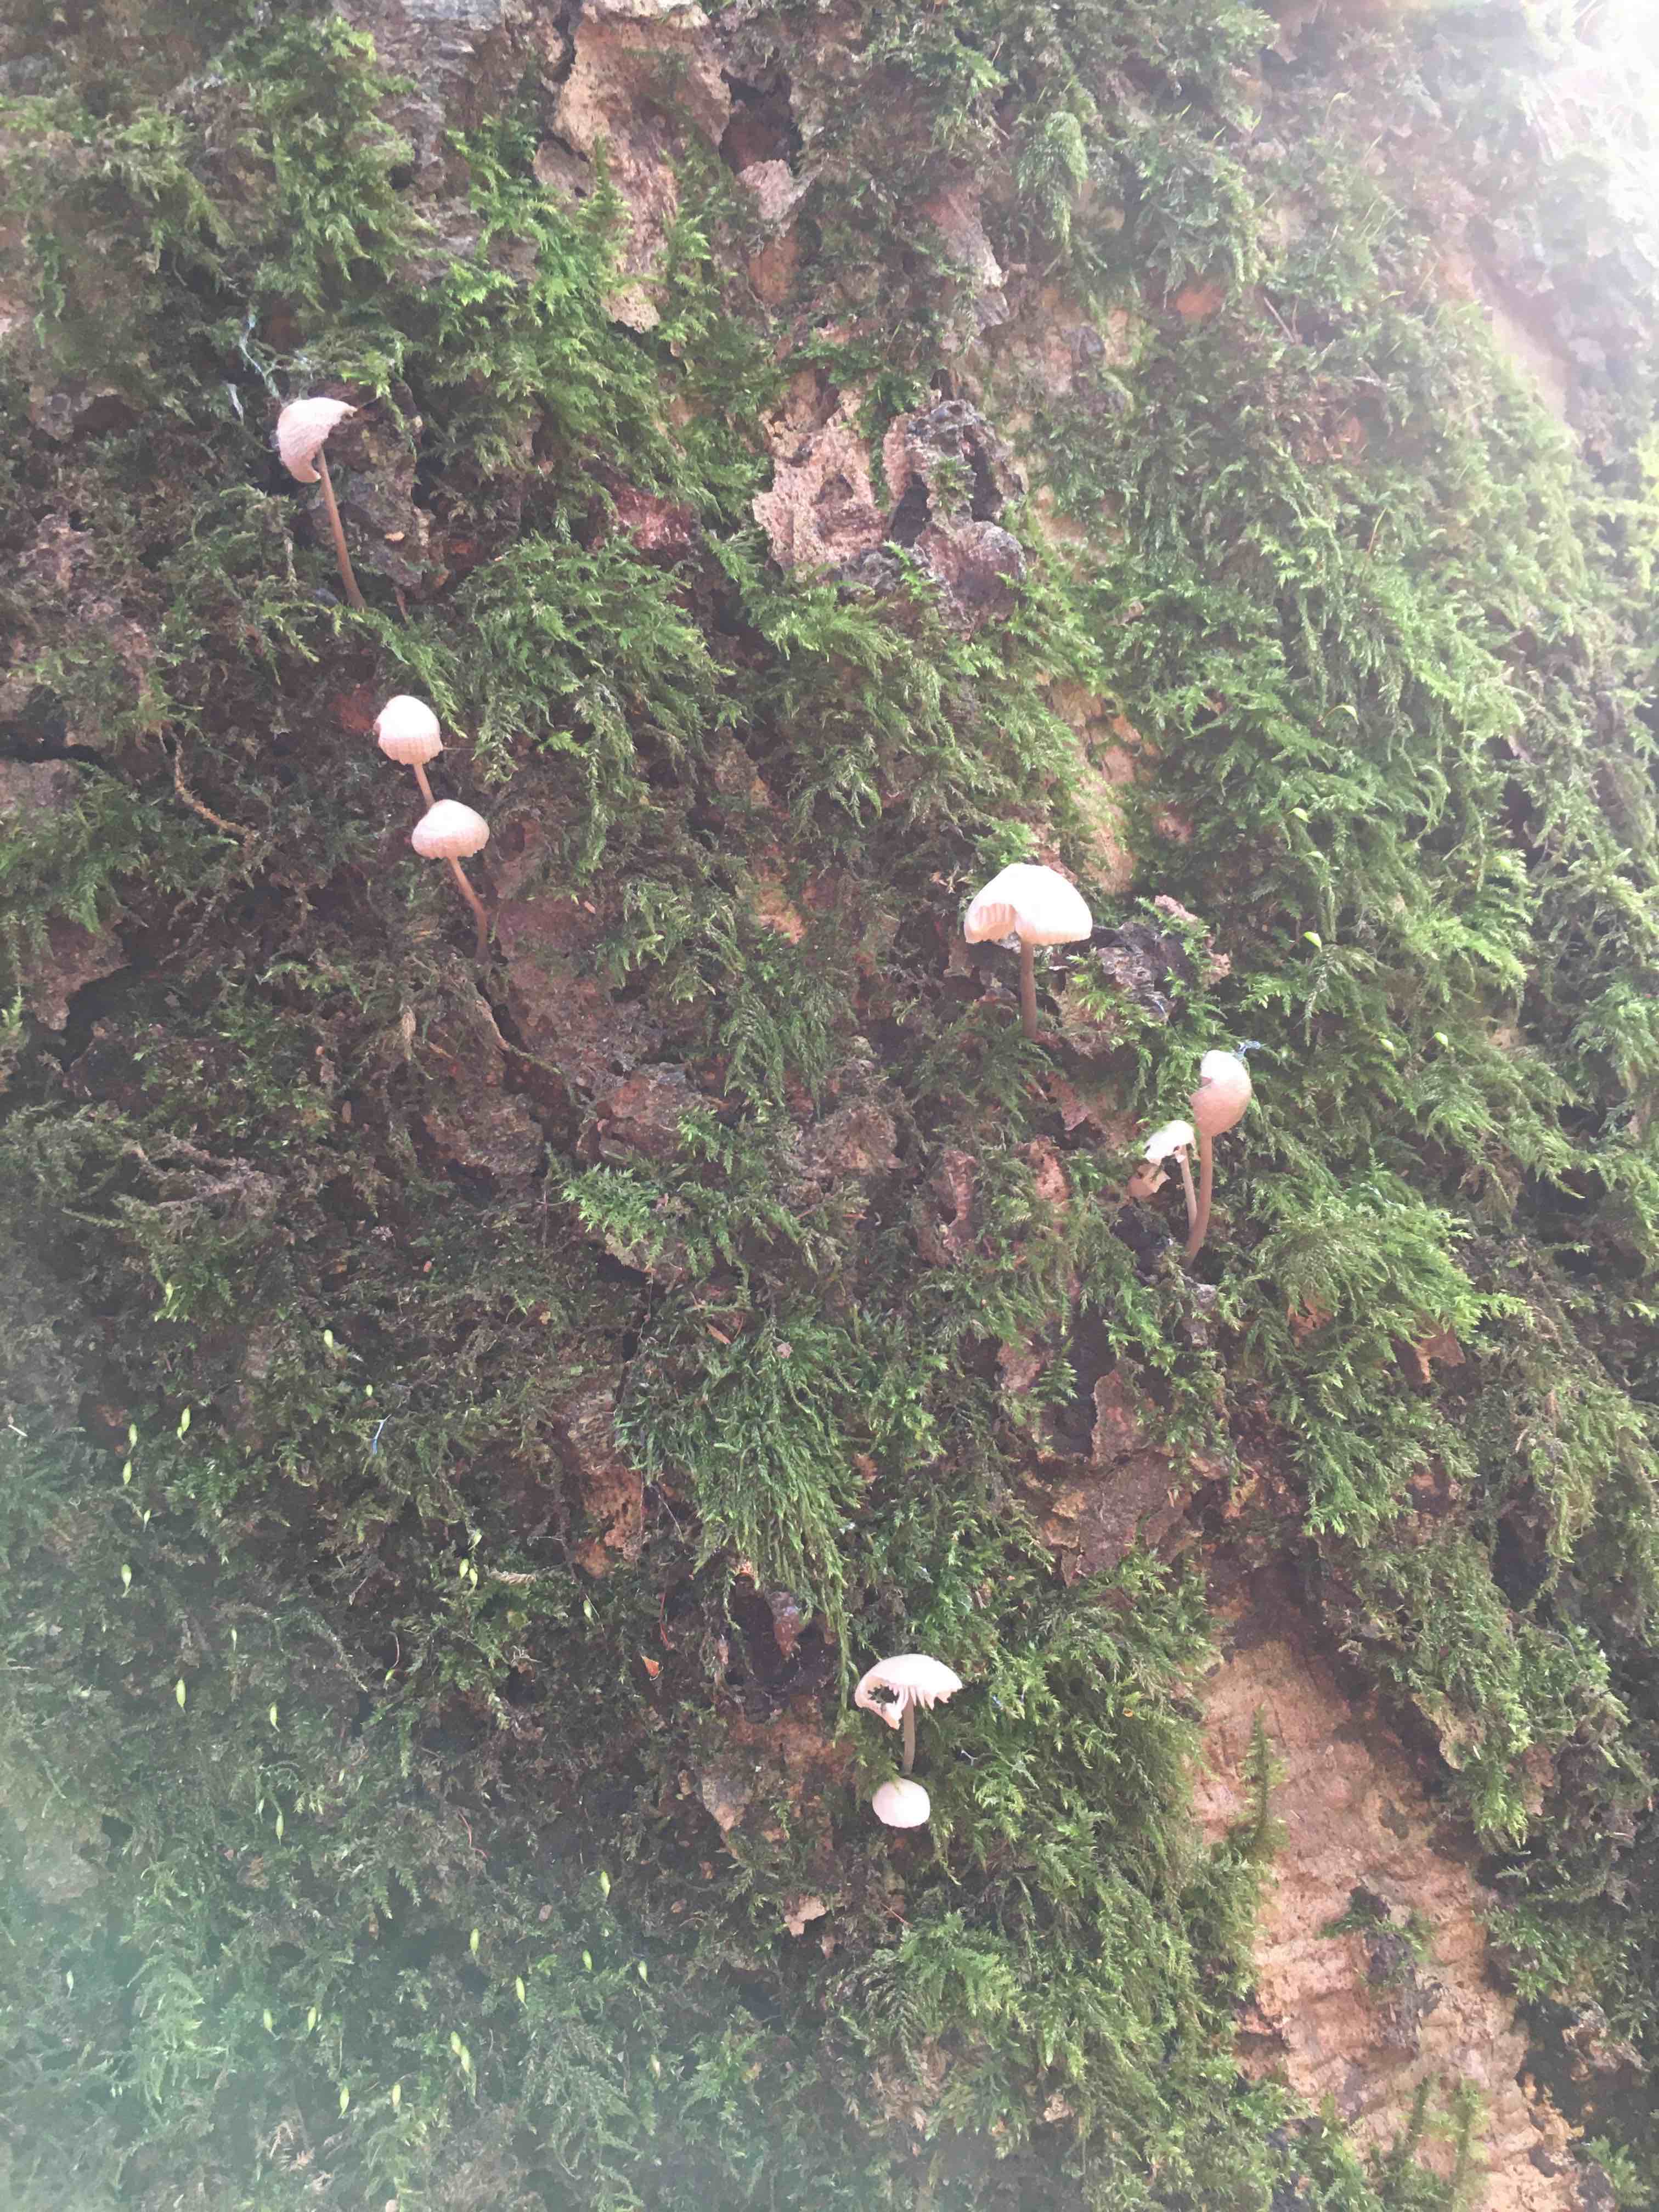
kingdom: Fungi
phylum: Basidiomycota
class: Agaricomycetes
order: Agaricales
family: Mycenaceae
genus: Mycena
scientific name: Mycena
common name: huesvamp
